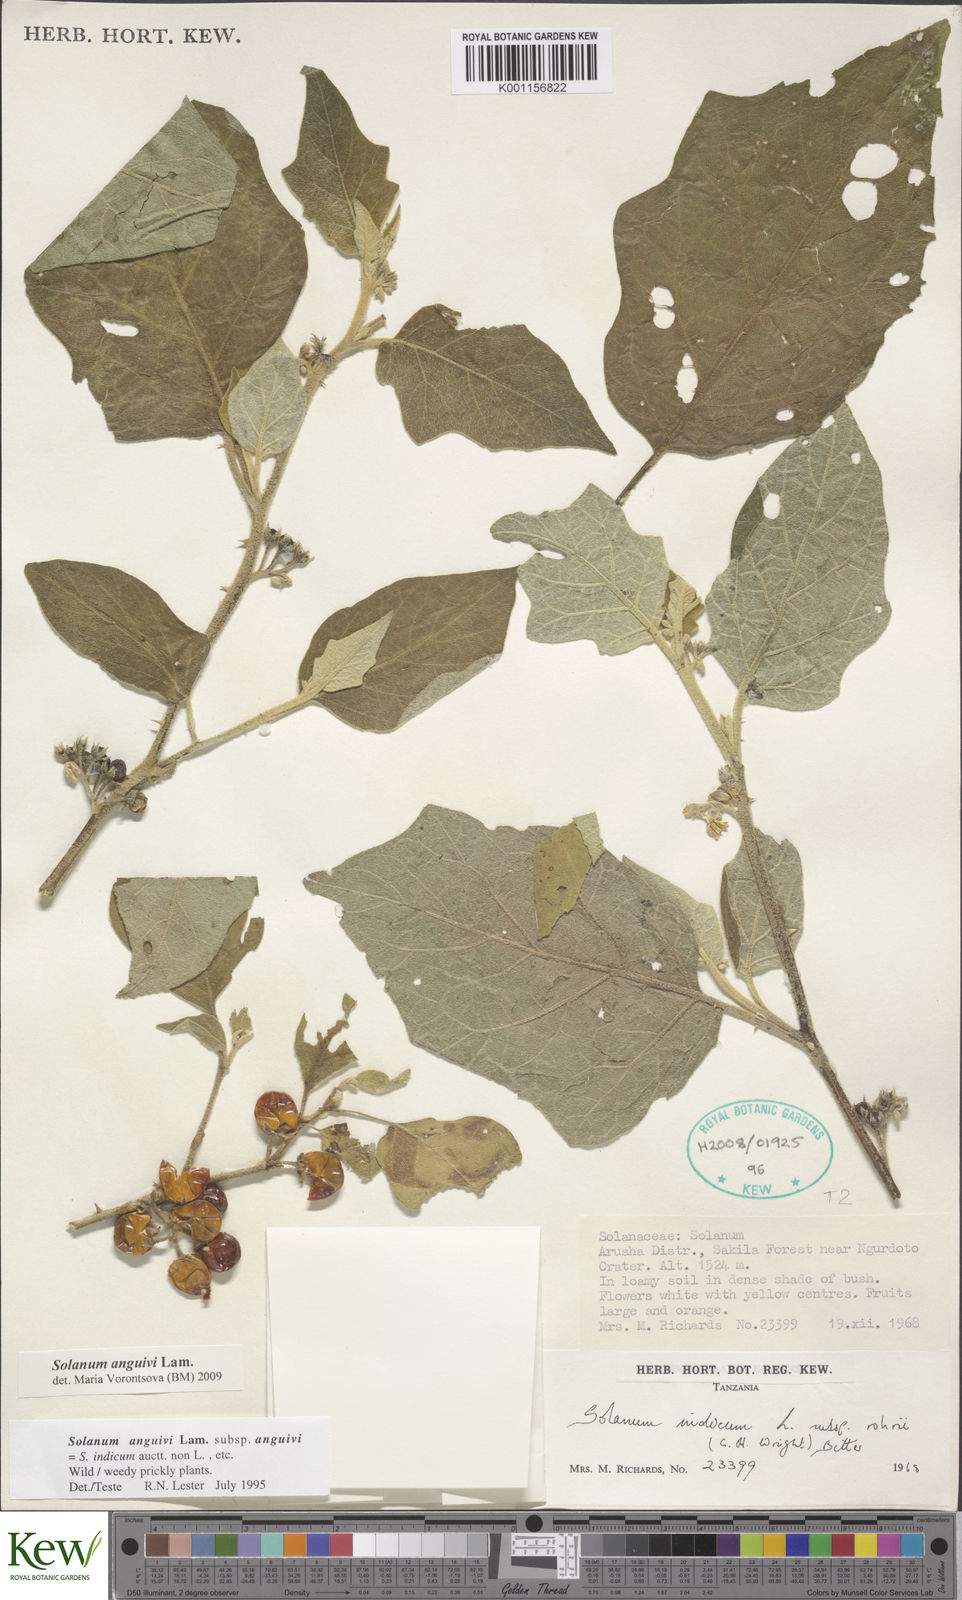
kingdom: Plantae
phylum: Tracheophyta
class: Magnoliopsida
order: Solanales
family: Solanaceae
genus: Solanum
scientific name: Solanum anguivi
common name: Forest bitterberry
